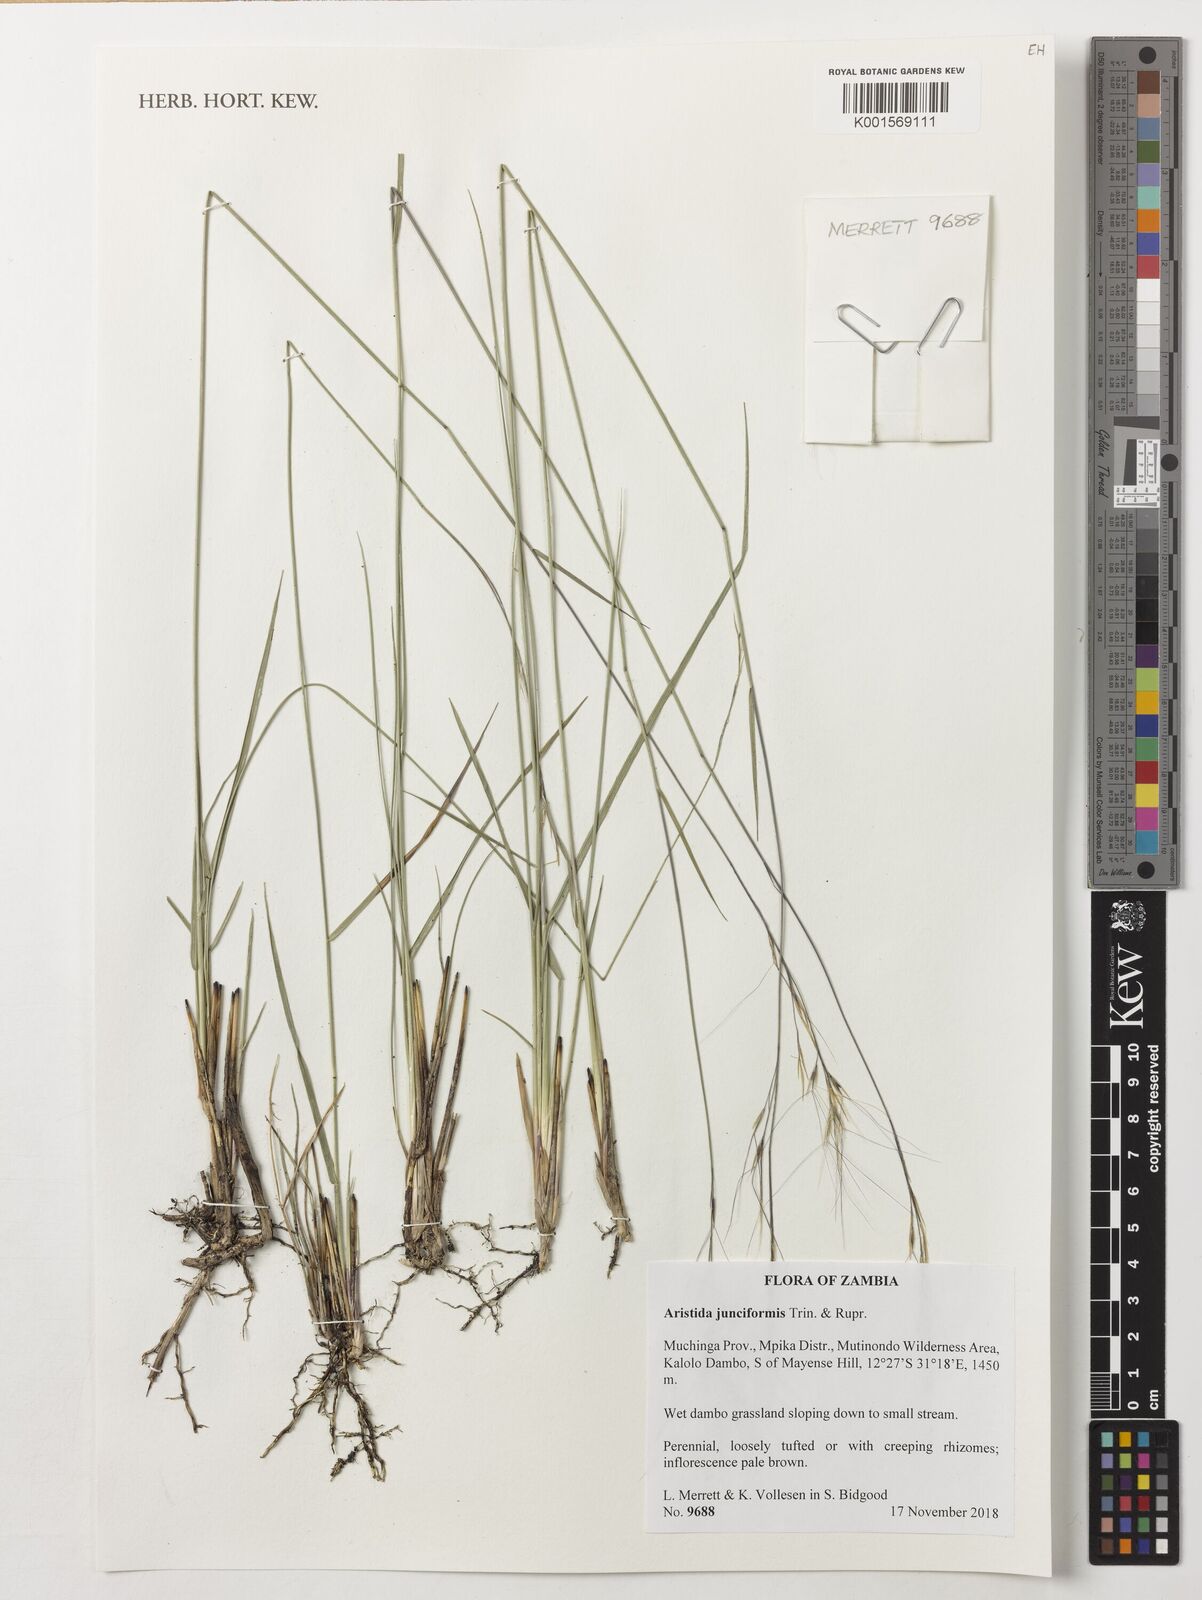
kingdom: Plantae
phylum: Tracheophyta
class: Liliopsida
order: Poales
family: Poaceae
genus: Aristida
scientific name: Aristida junciformis
